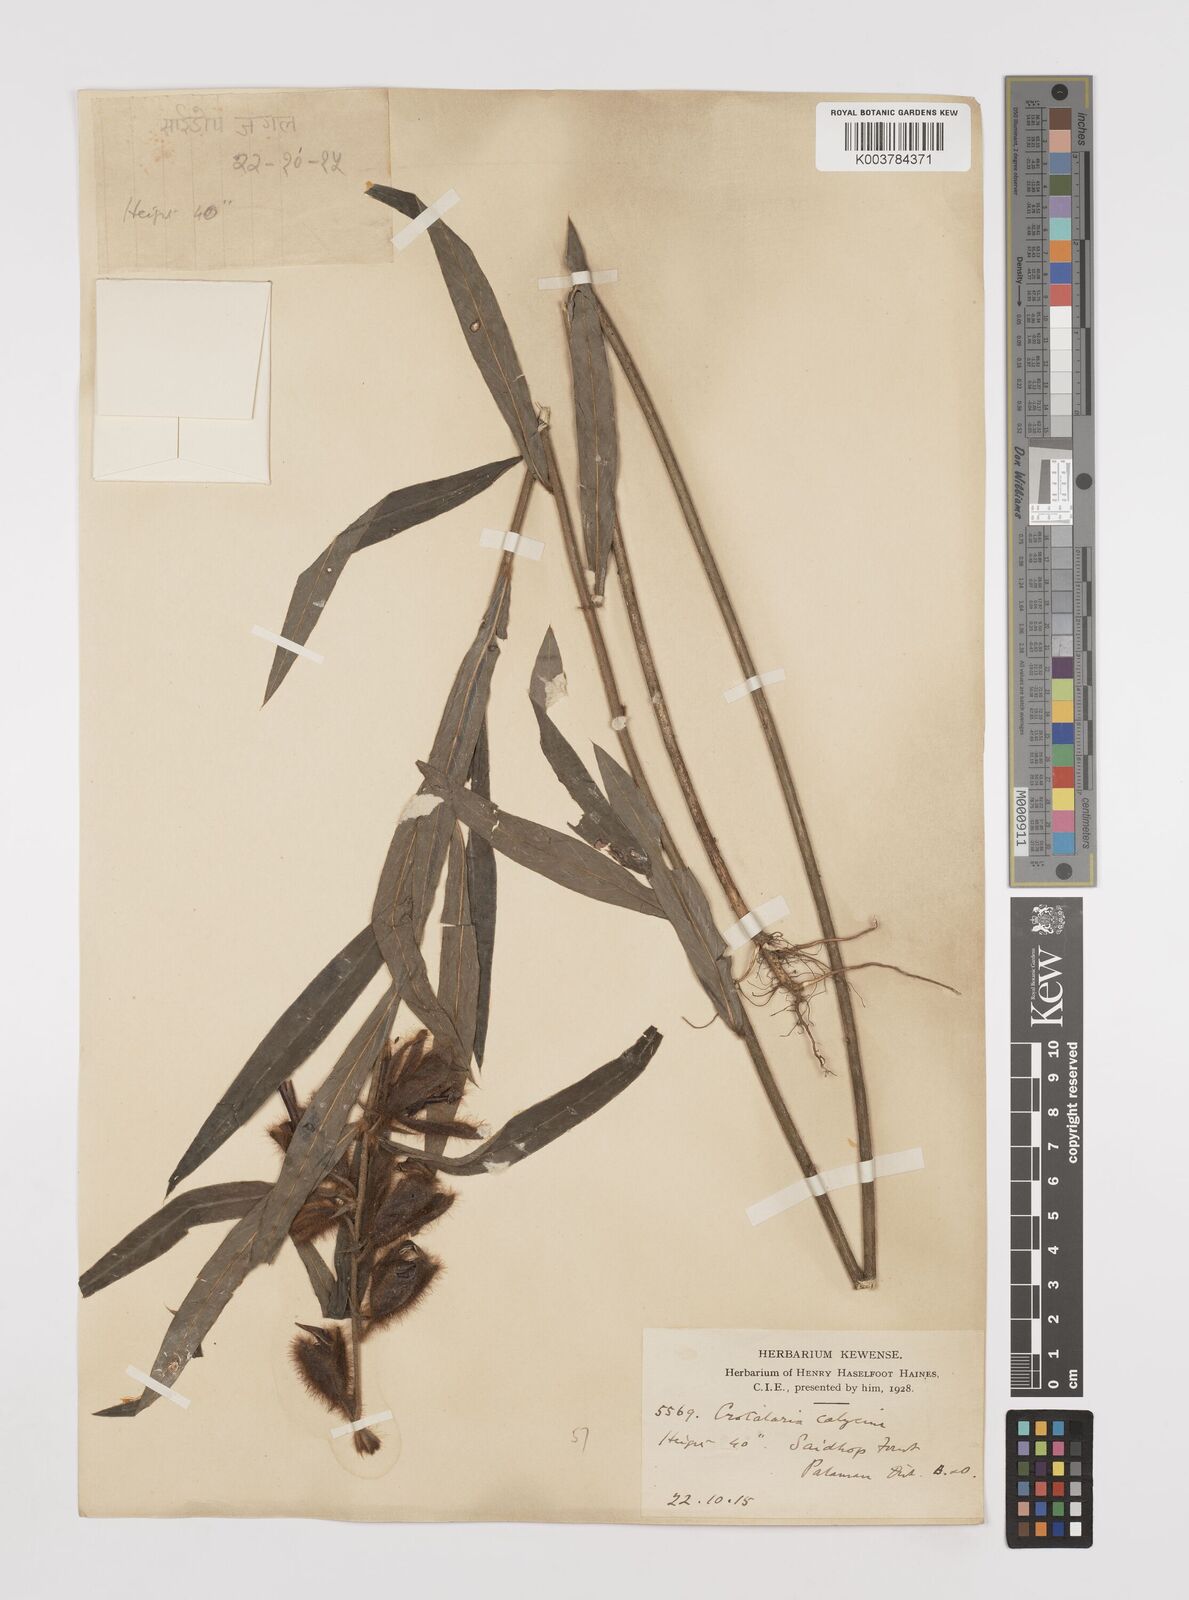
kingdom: Plantae
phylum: Tracheophyta
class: Magnoliopsida
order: Fabales
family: Fabaceae
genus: Crotalaria
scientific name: Crotalaria calycina
